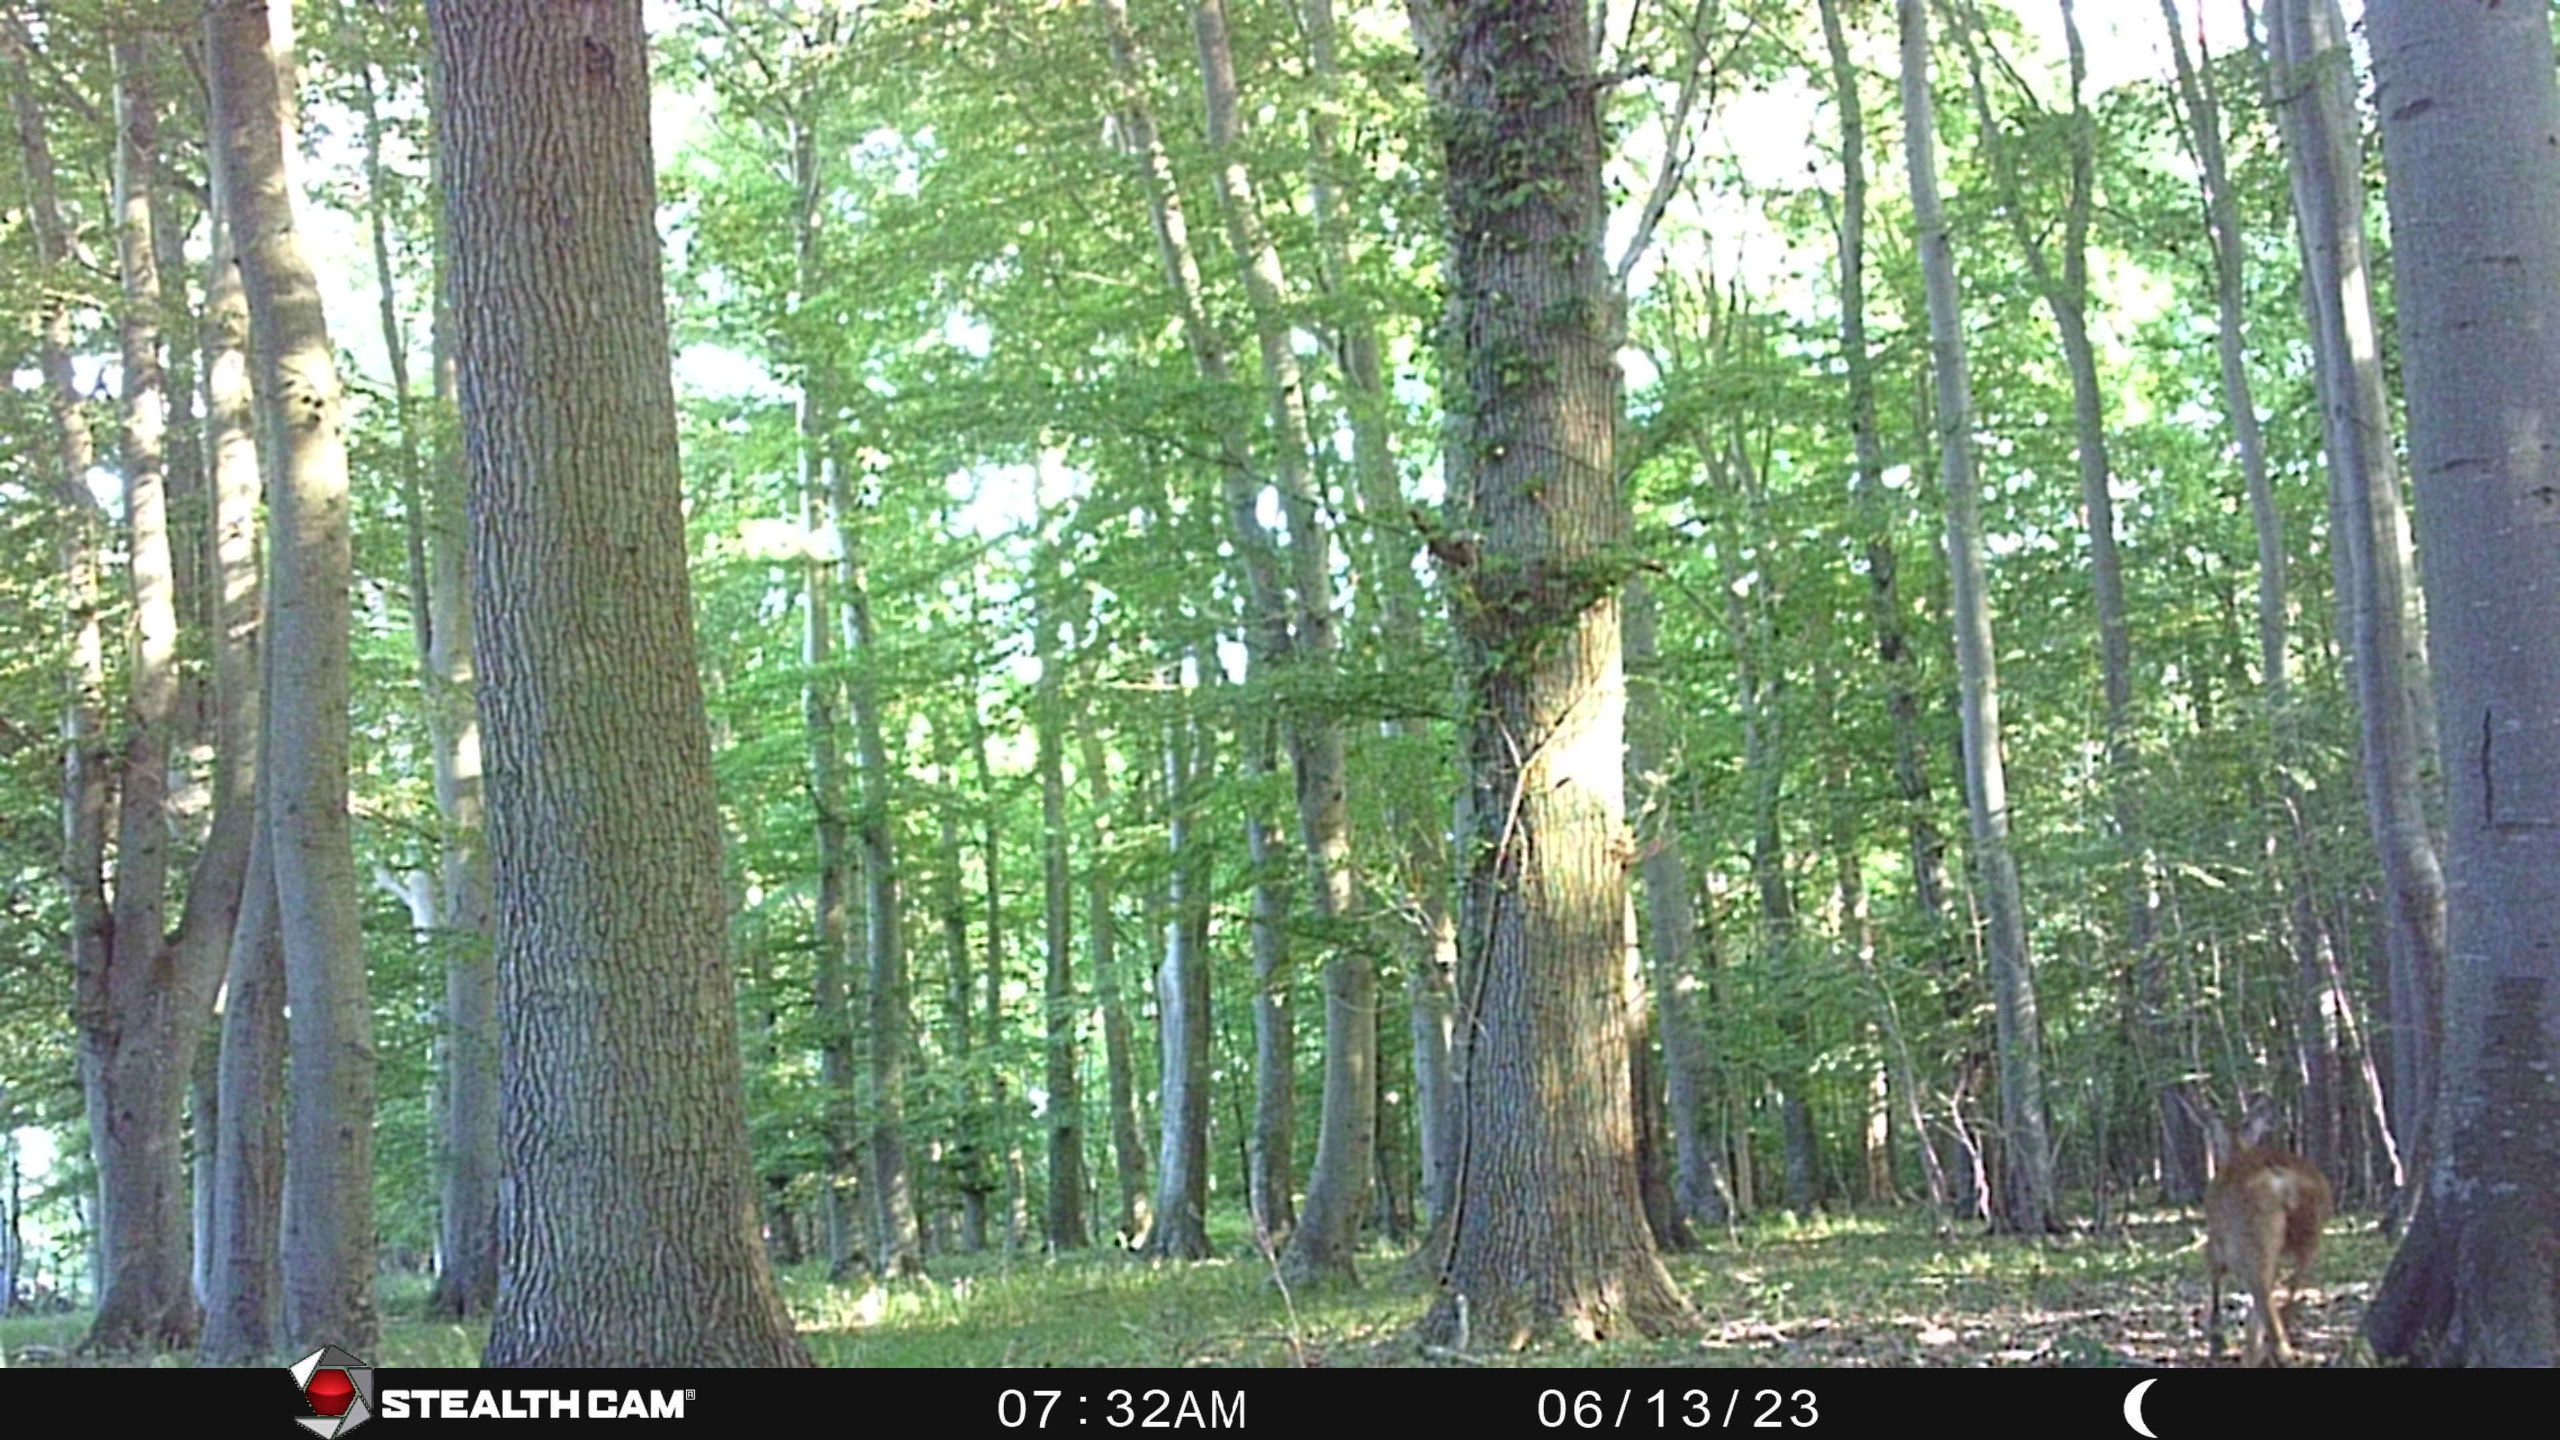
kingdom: Animalia
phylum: Chordata
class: Mammalia
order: Artiodactyla
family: Cervidae
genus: Capreolus
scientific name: Capreolus capreolus
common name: Rådyr
